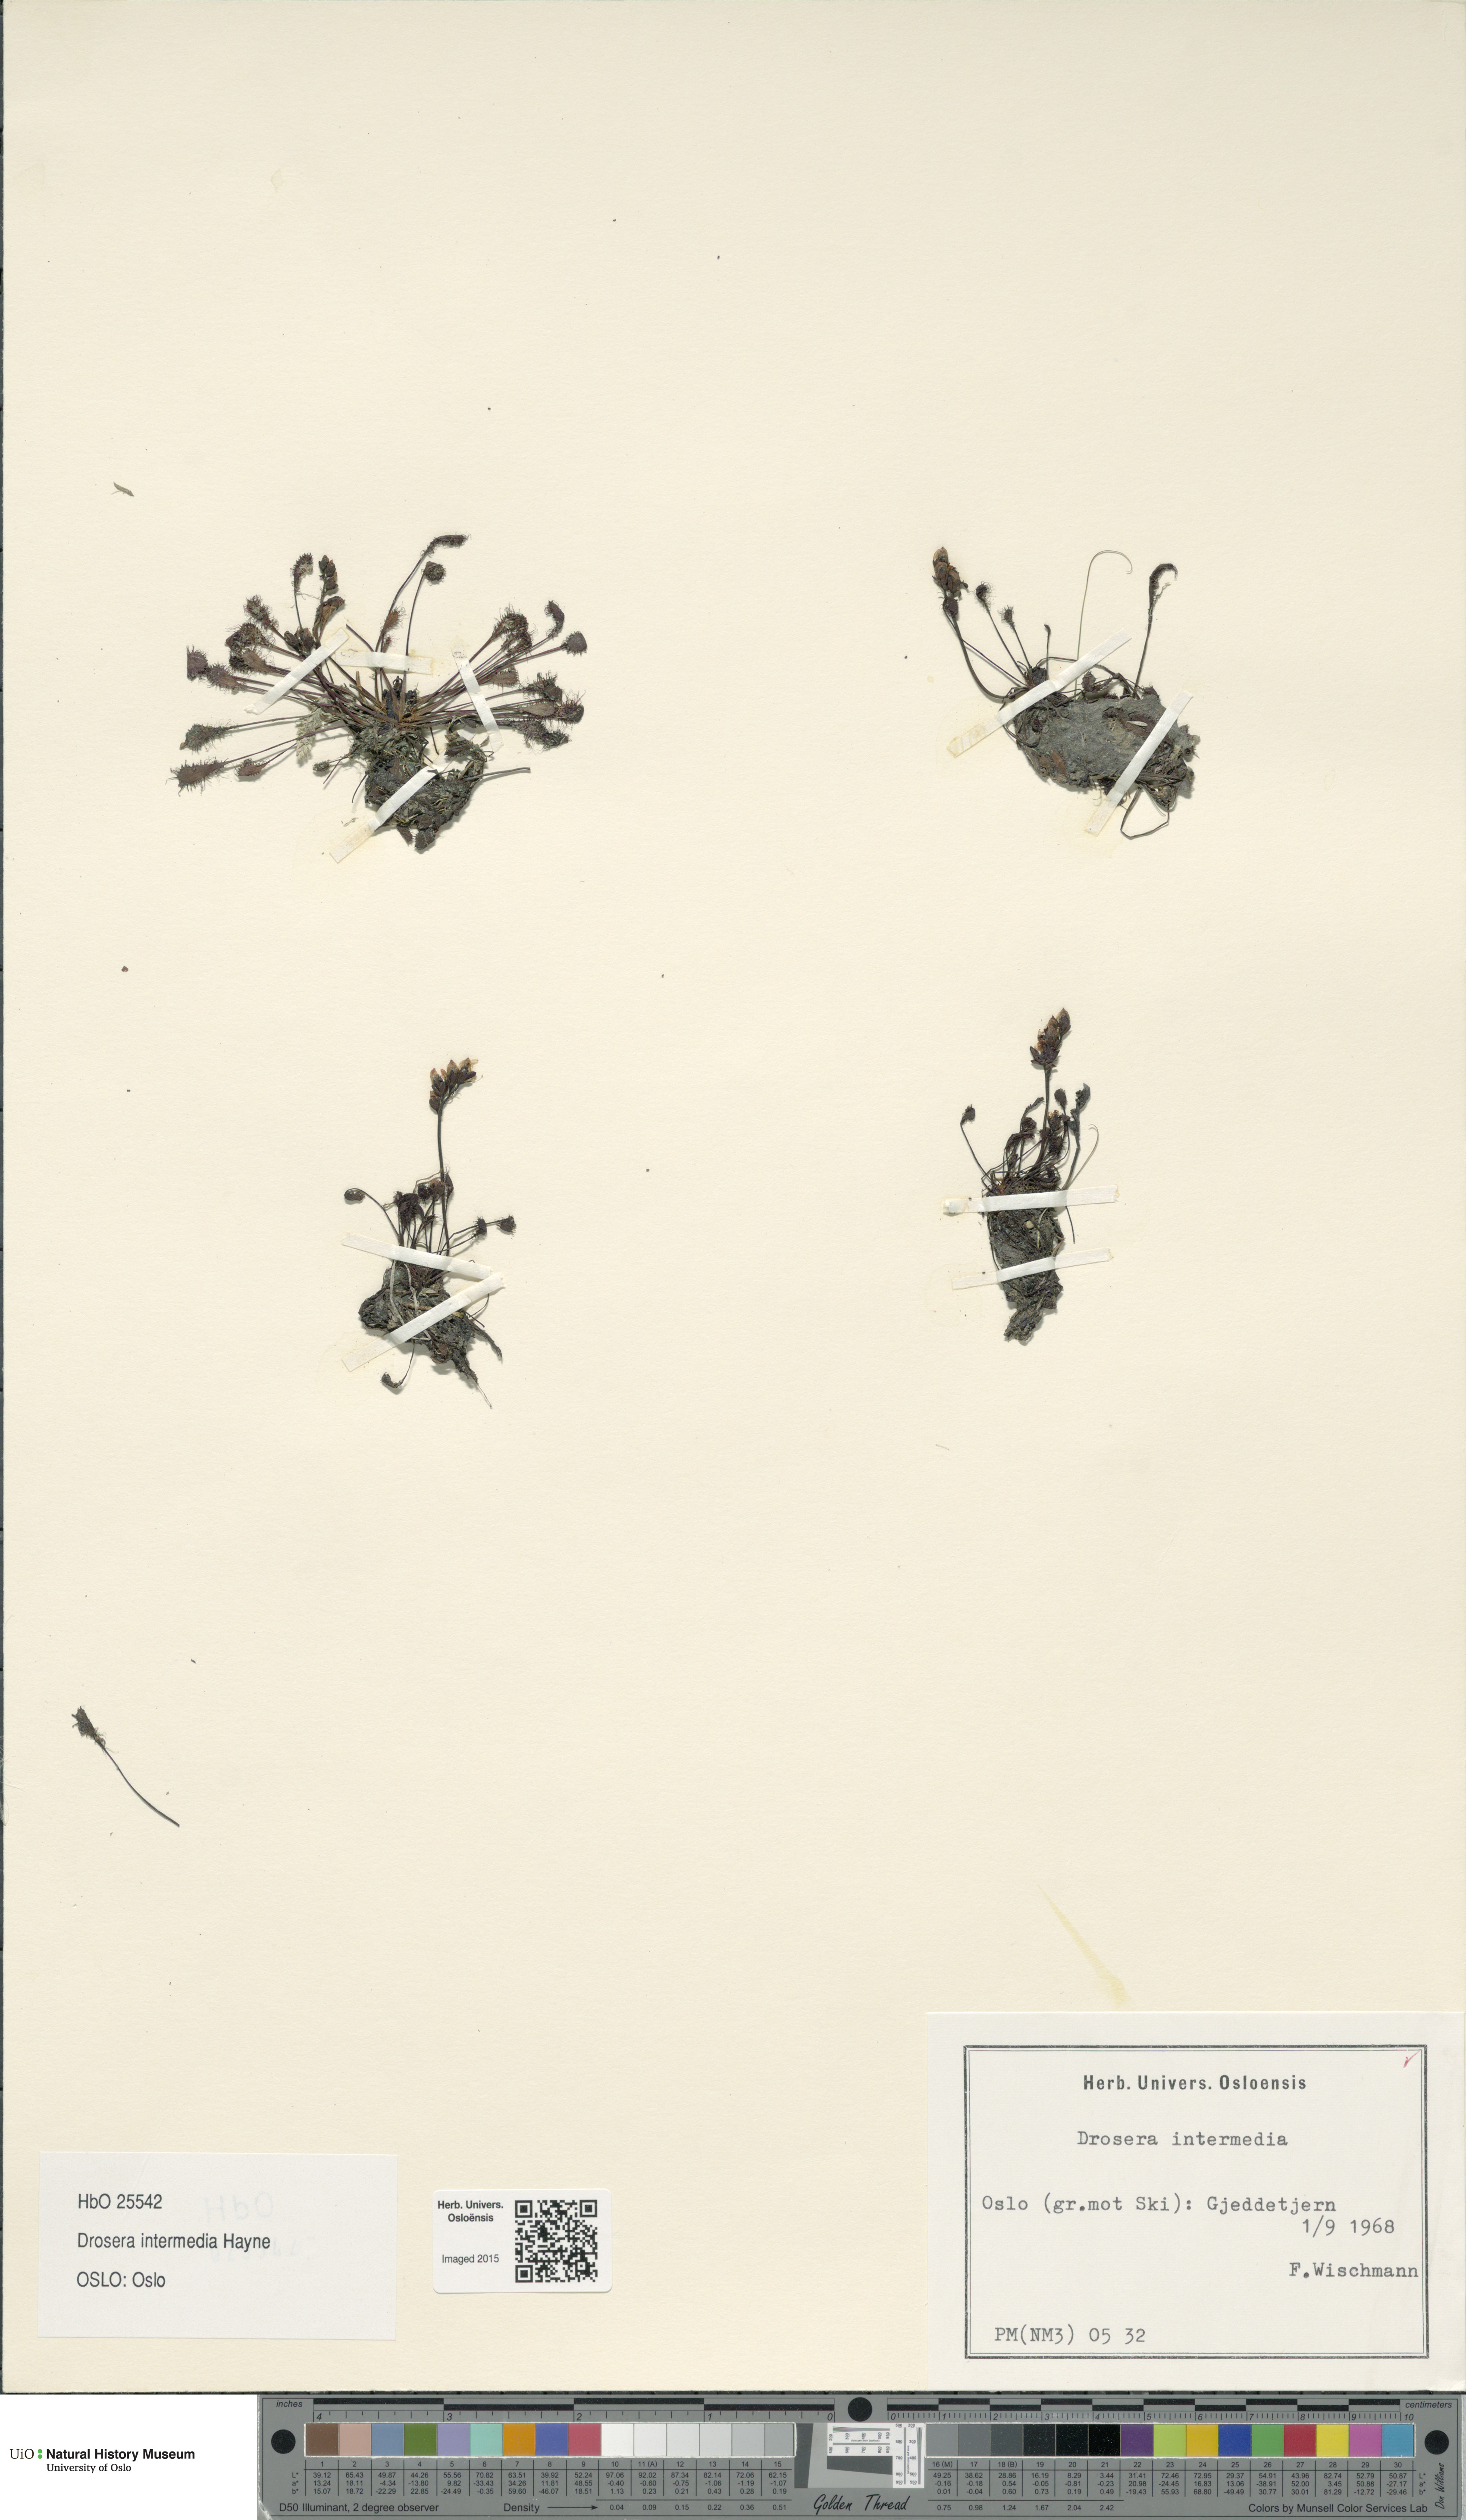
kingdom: Plantae
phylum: Tracheophyta
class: Magnoliopsida
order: Caryophyllales
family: Droseraceae
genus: Drosera
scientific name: Drosera intermedia
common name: Oblong-leaved sundew
